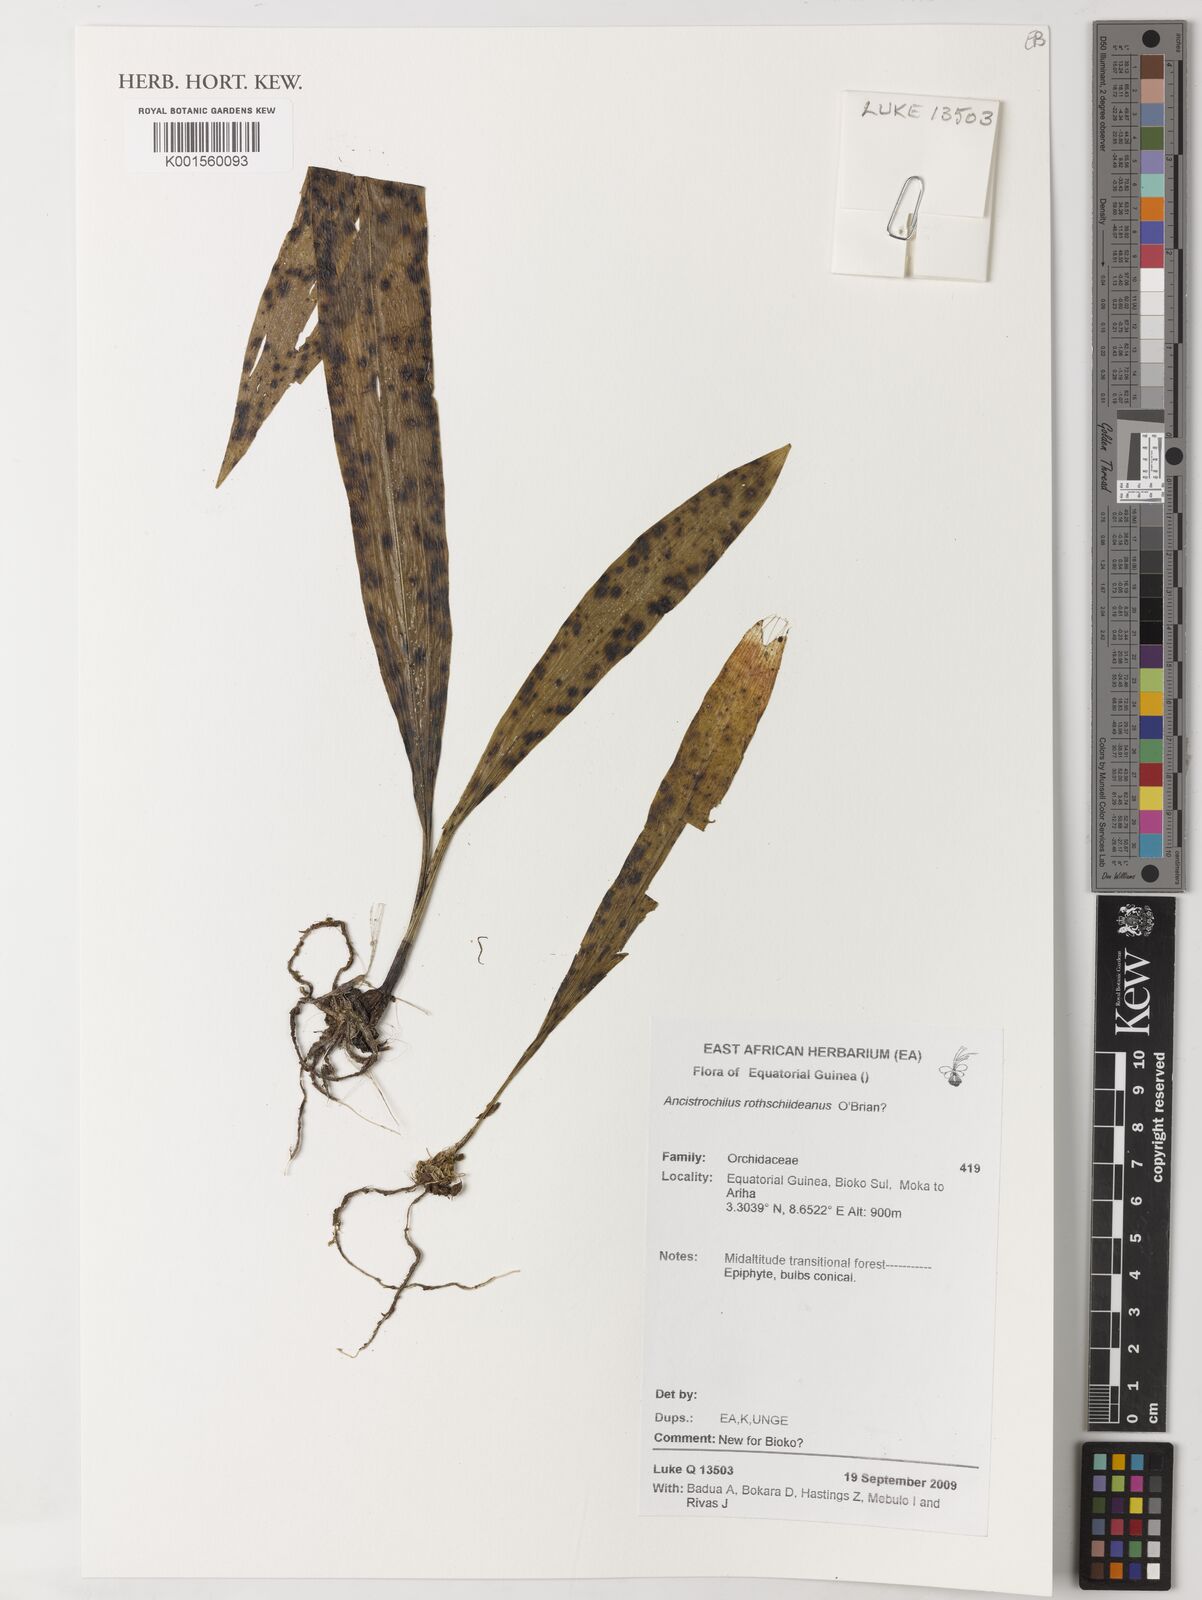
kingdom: Plantae
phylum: Tracheophyta
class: Liliopsida
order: Asparagales
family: Orchidaceae
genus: Ancistrochilus
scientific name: Ancistrochilus rothschildianus
